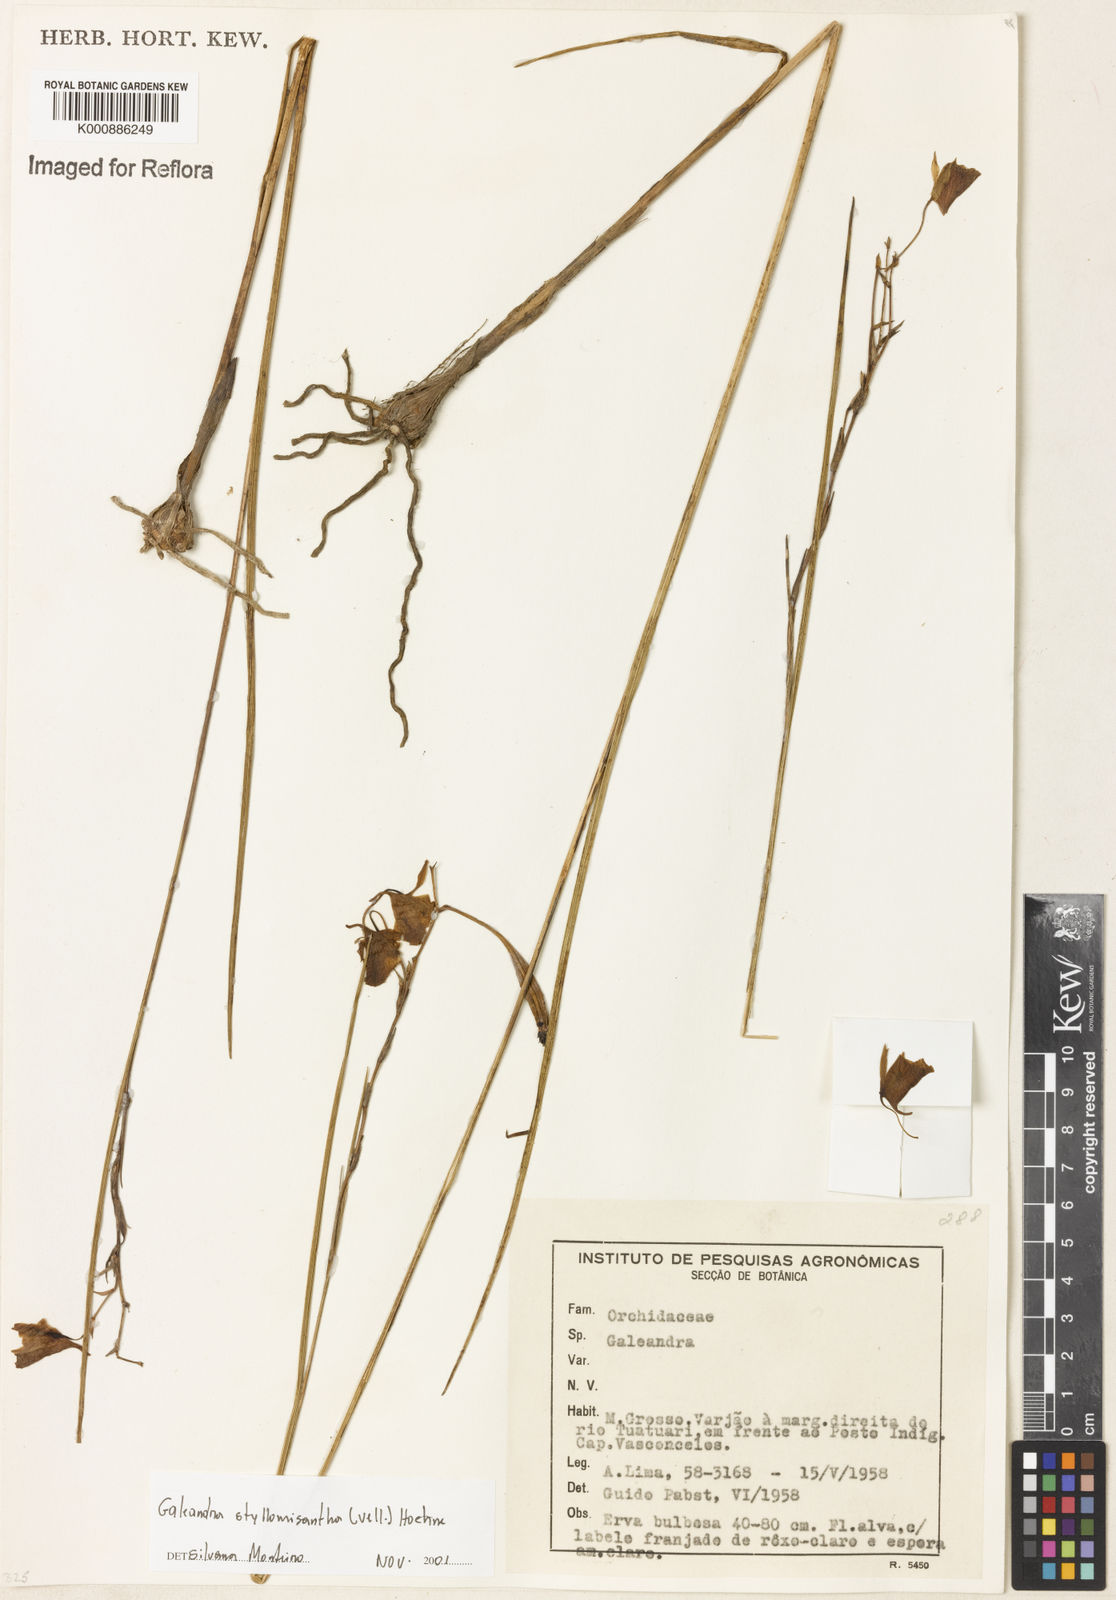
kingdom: Plantae
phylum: Tracheophyta
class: Liliopsida
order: Asparagales
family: Orchidaceae
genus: Galeandra
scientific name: Galeandra styllomisantha
